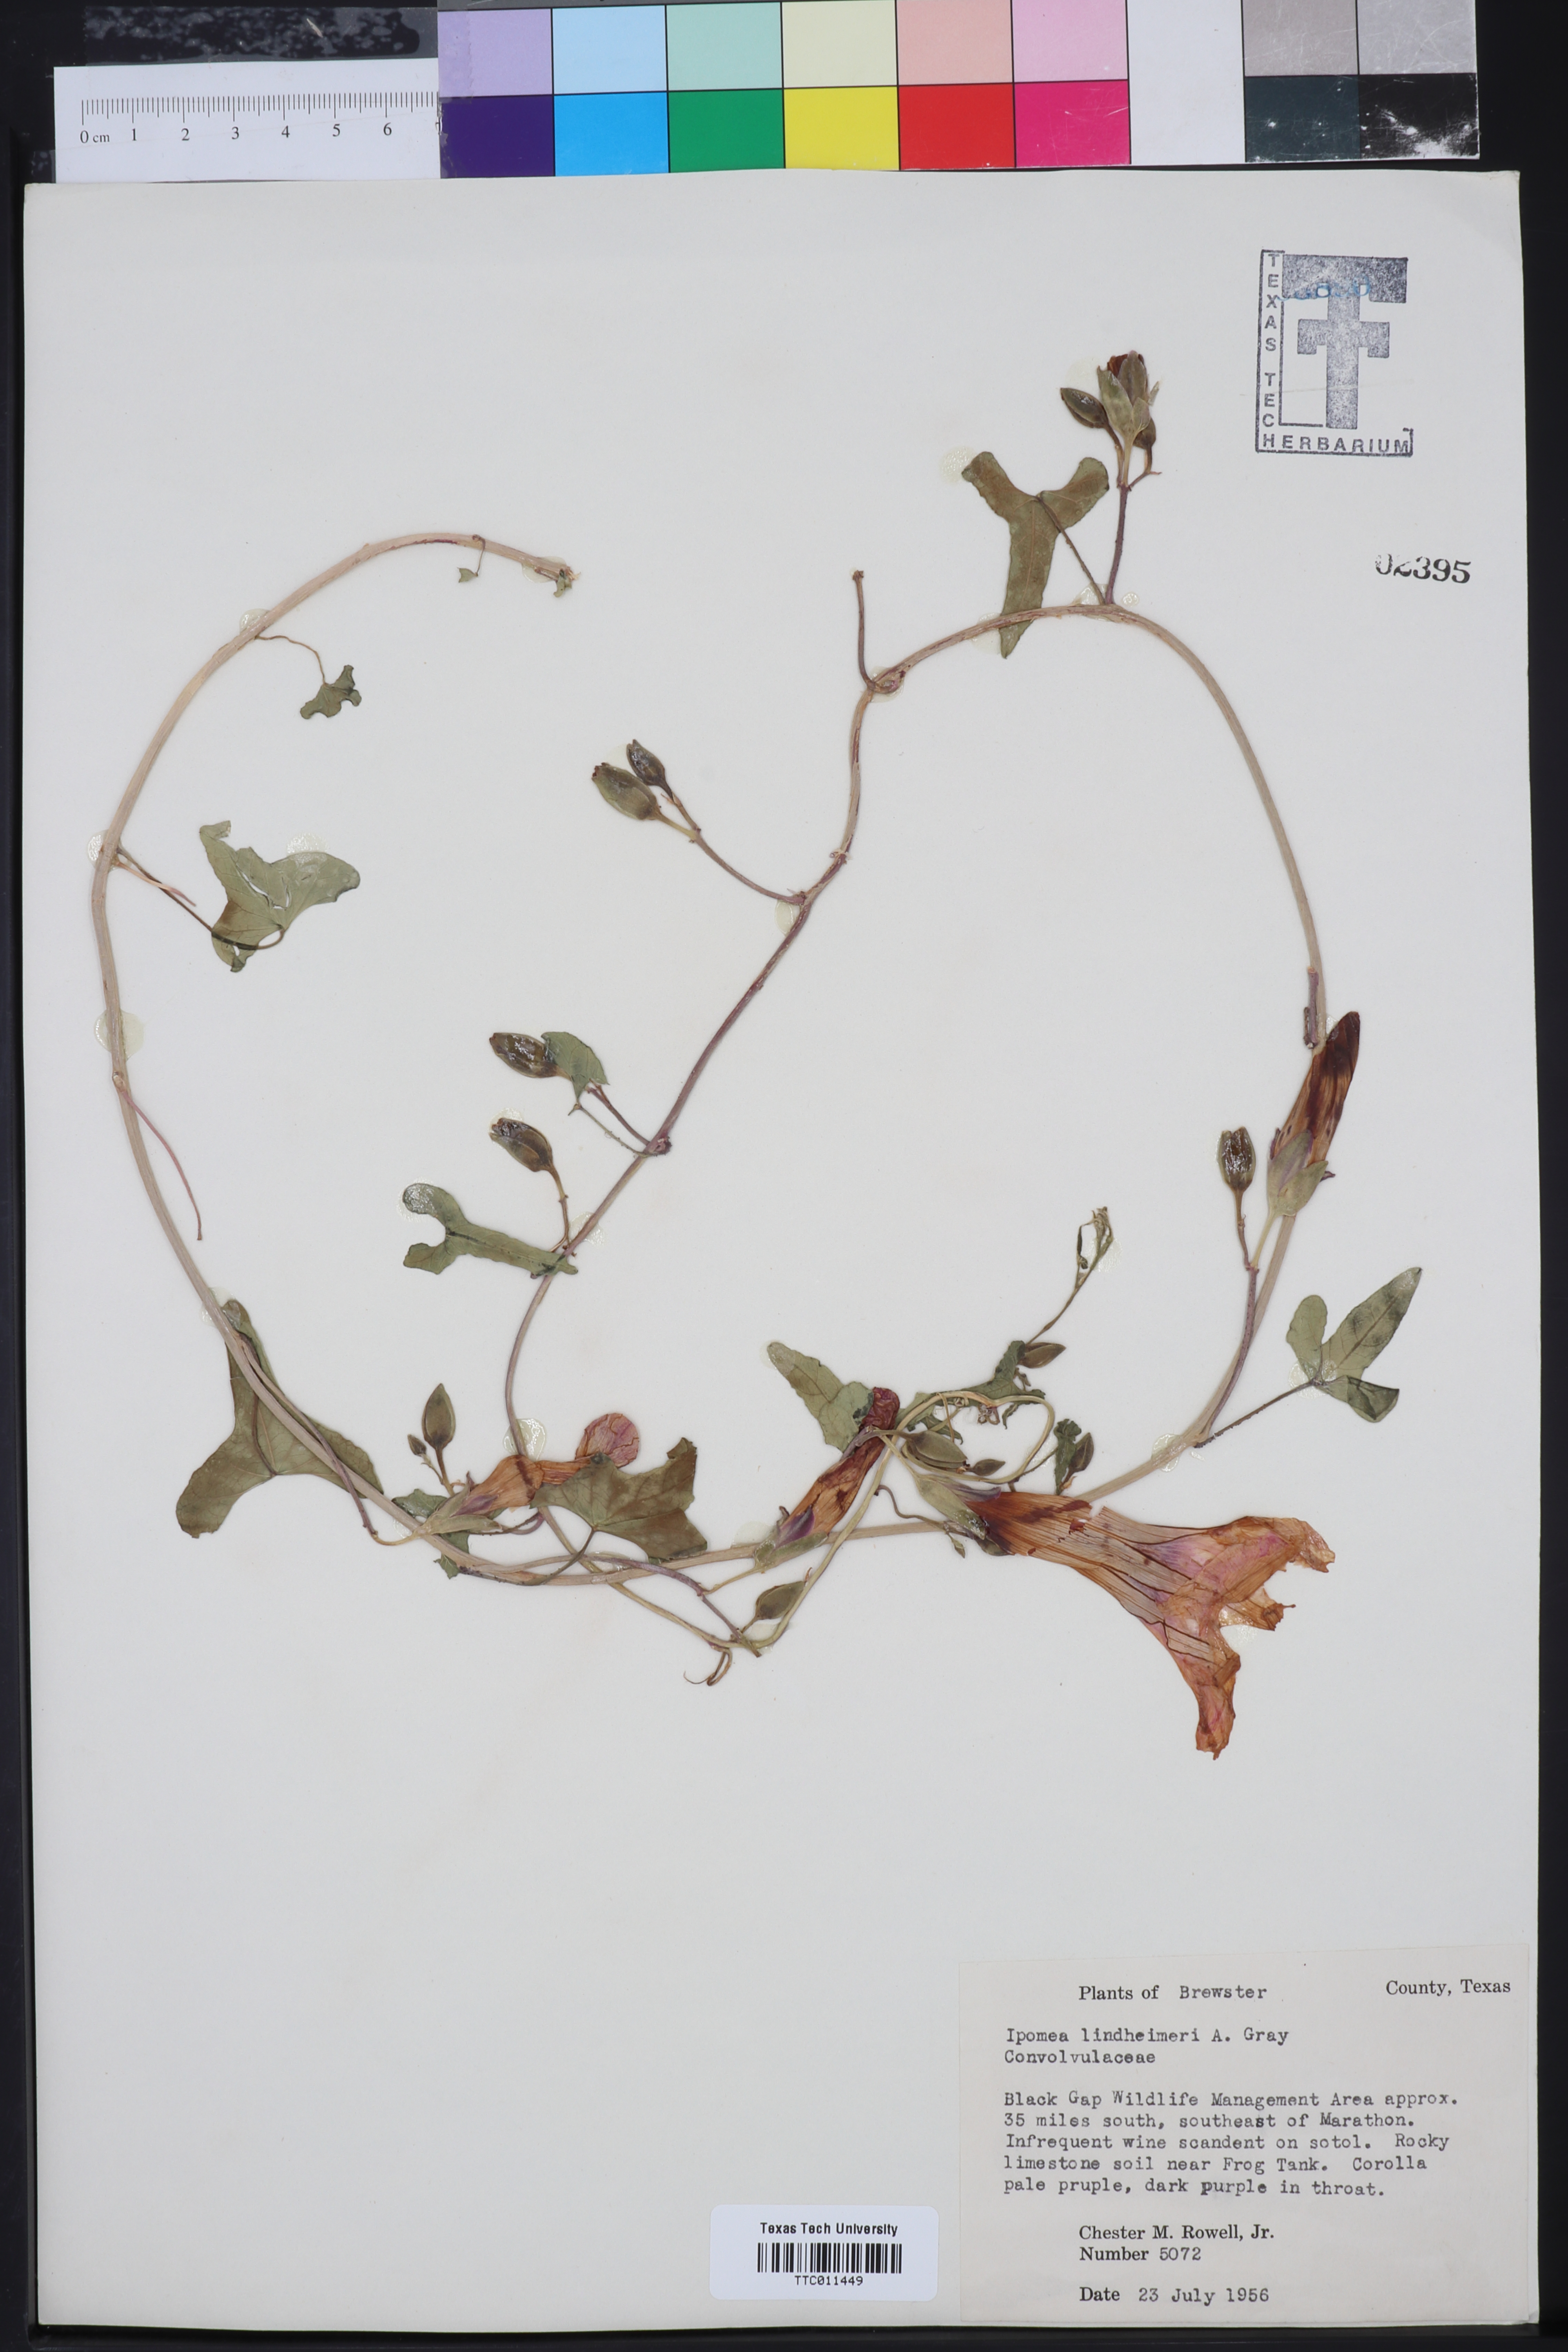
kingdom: Plantae
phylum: Tracheophyta
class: Magnoliopsida
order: Solanales
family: Convolvulaceae
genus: Ipomoea
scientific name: Ipomoea lindheimeri
